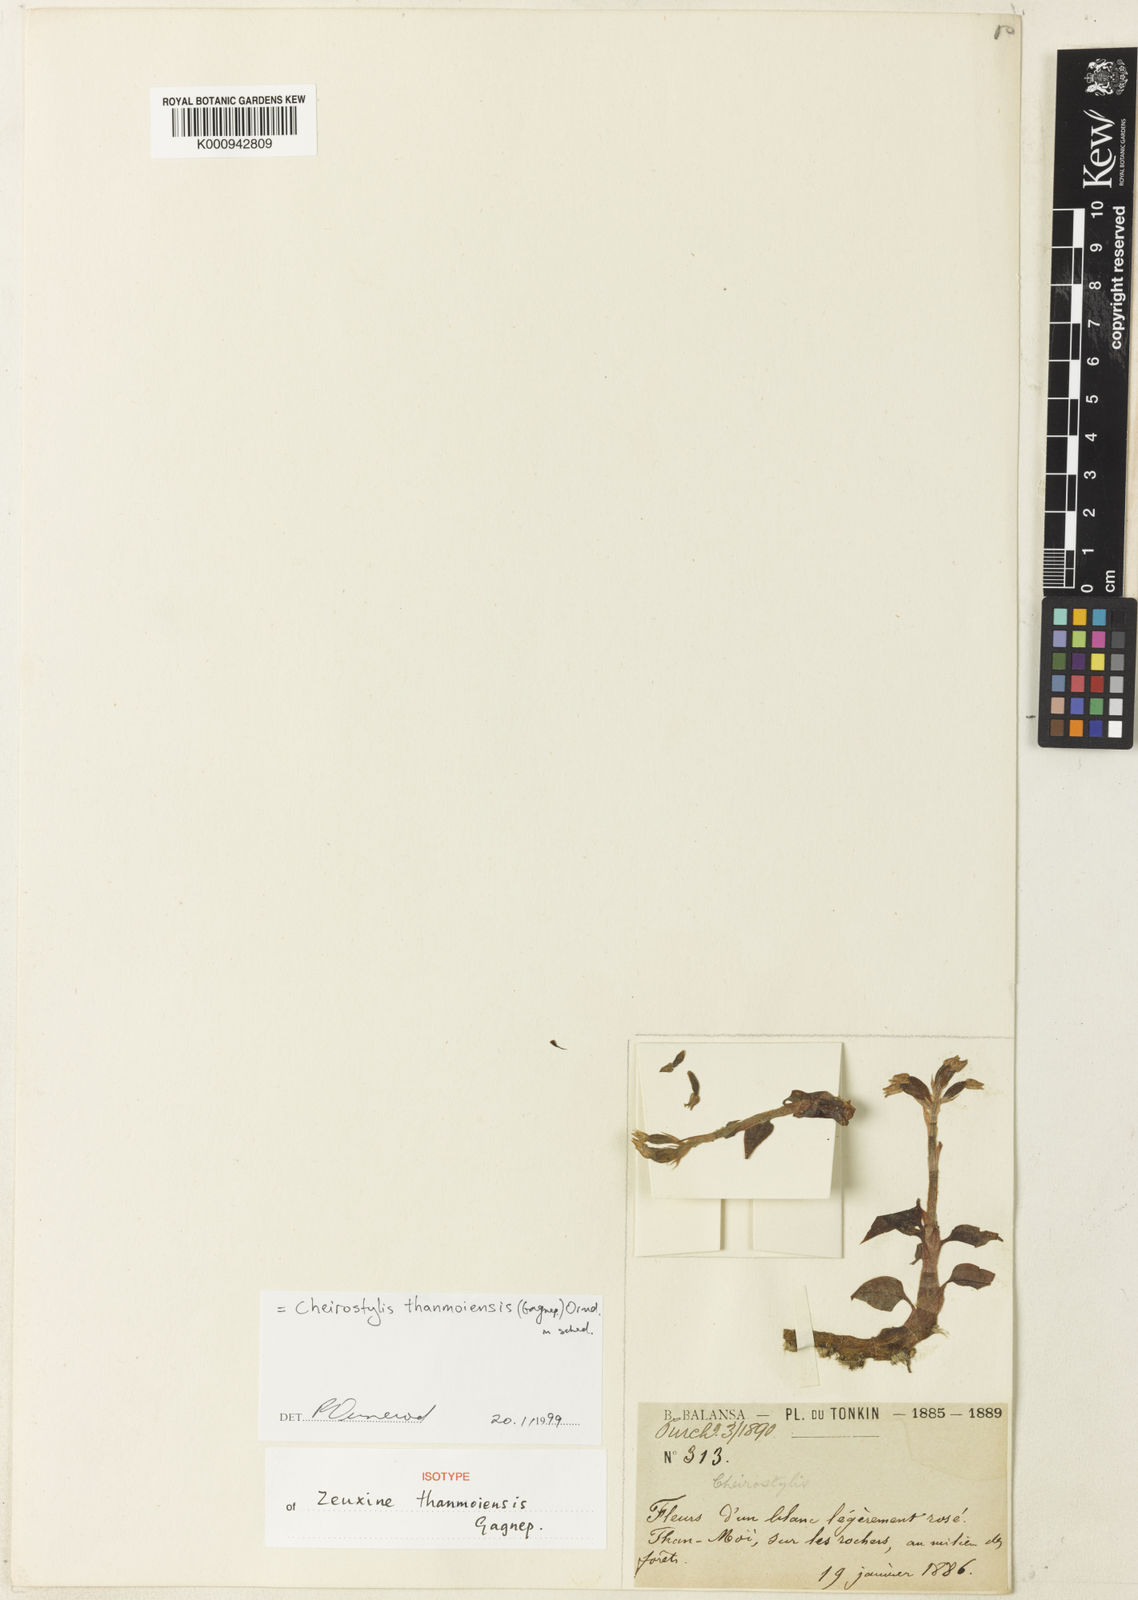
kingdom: Plantae
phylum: Tracheophyta
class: Liliopsida
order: Asparagales
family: Orchidaceae
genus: Cheirostylis
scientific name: Cheirostylis thanmoiensis
